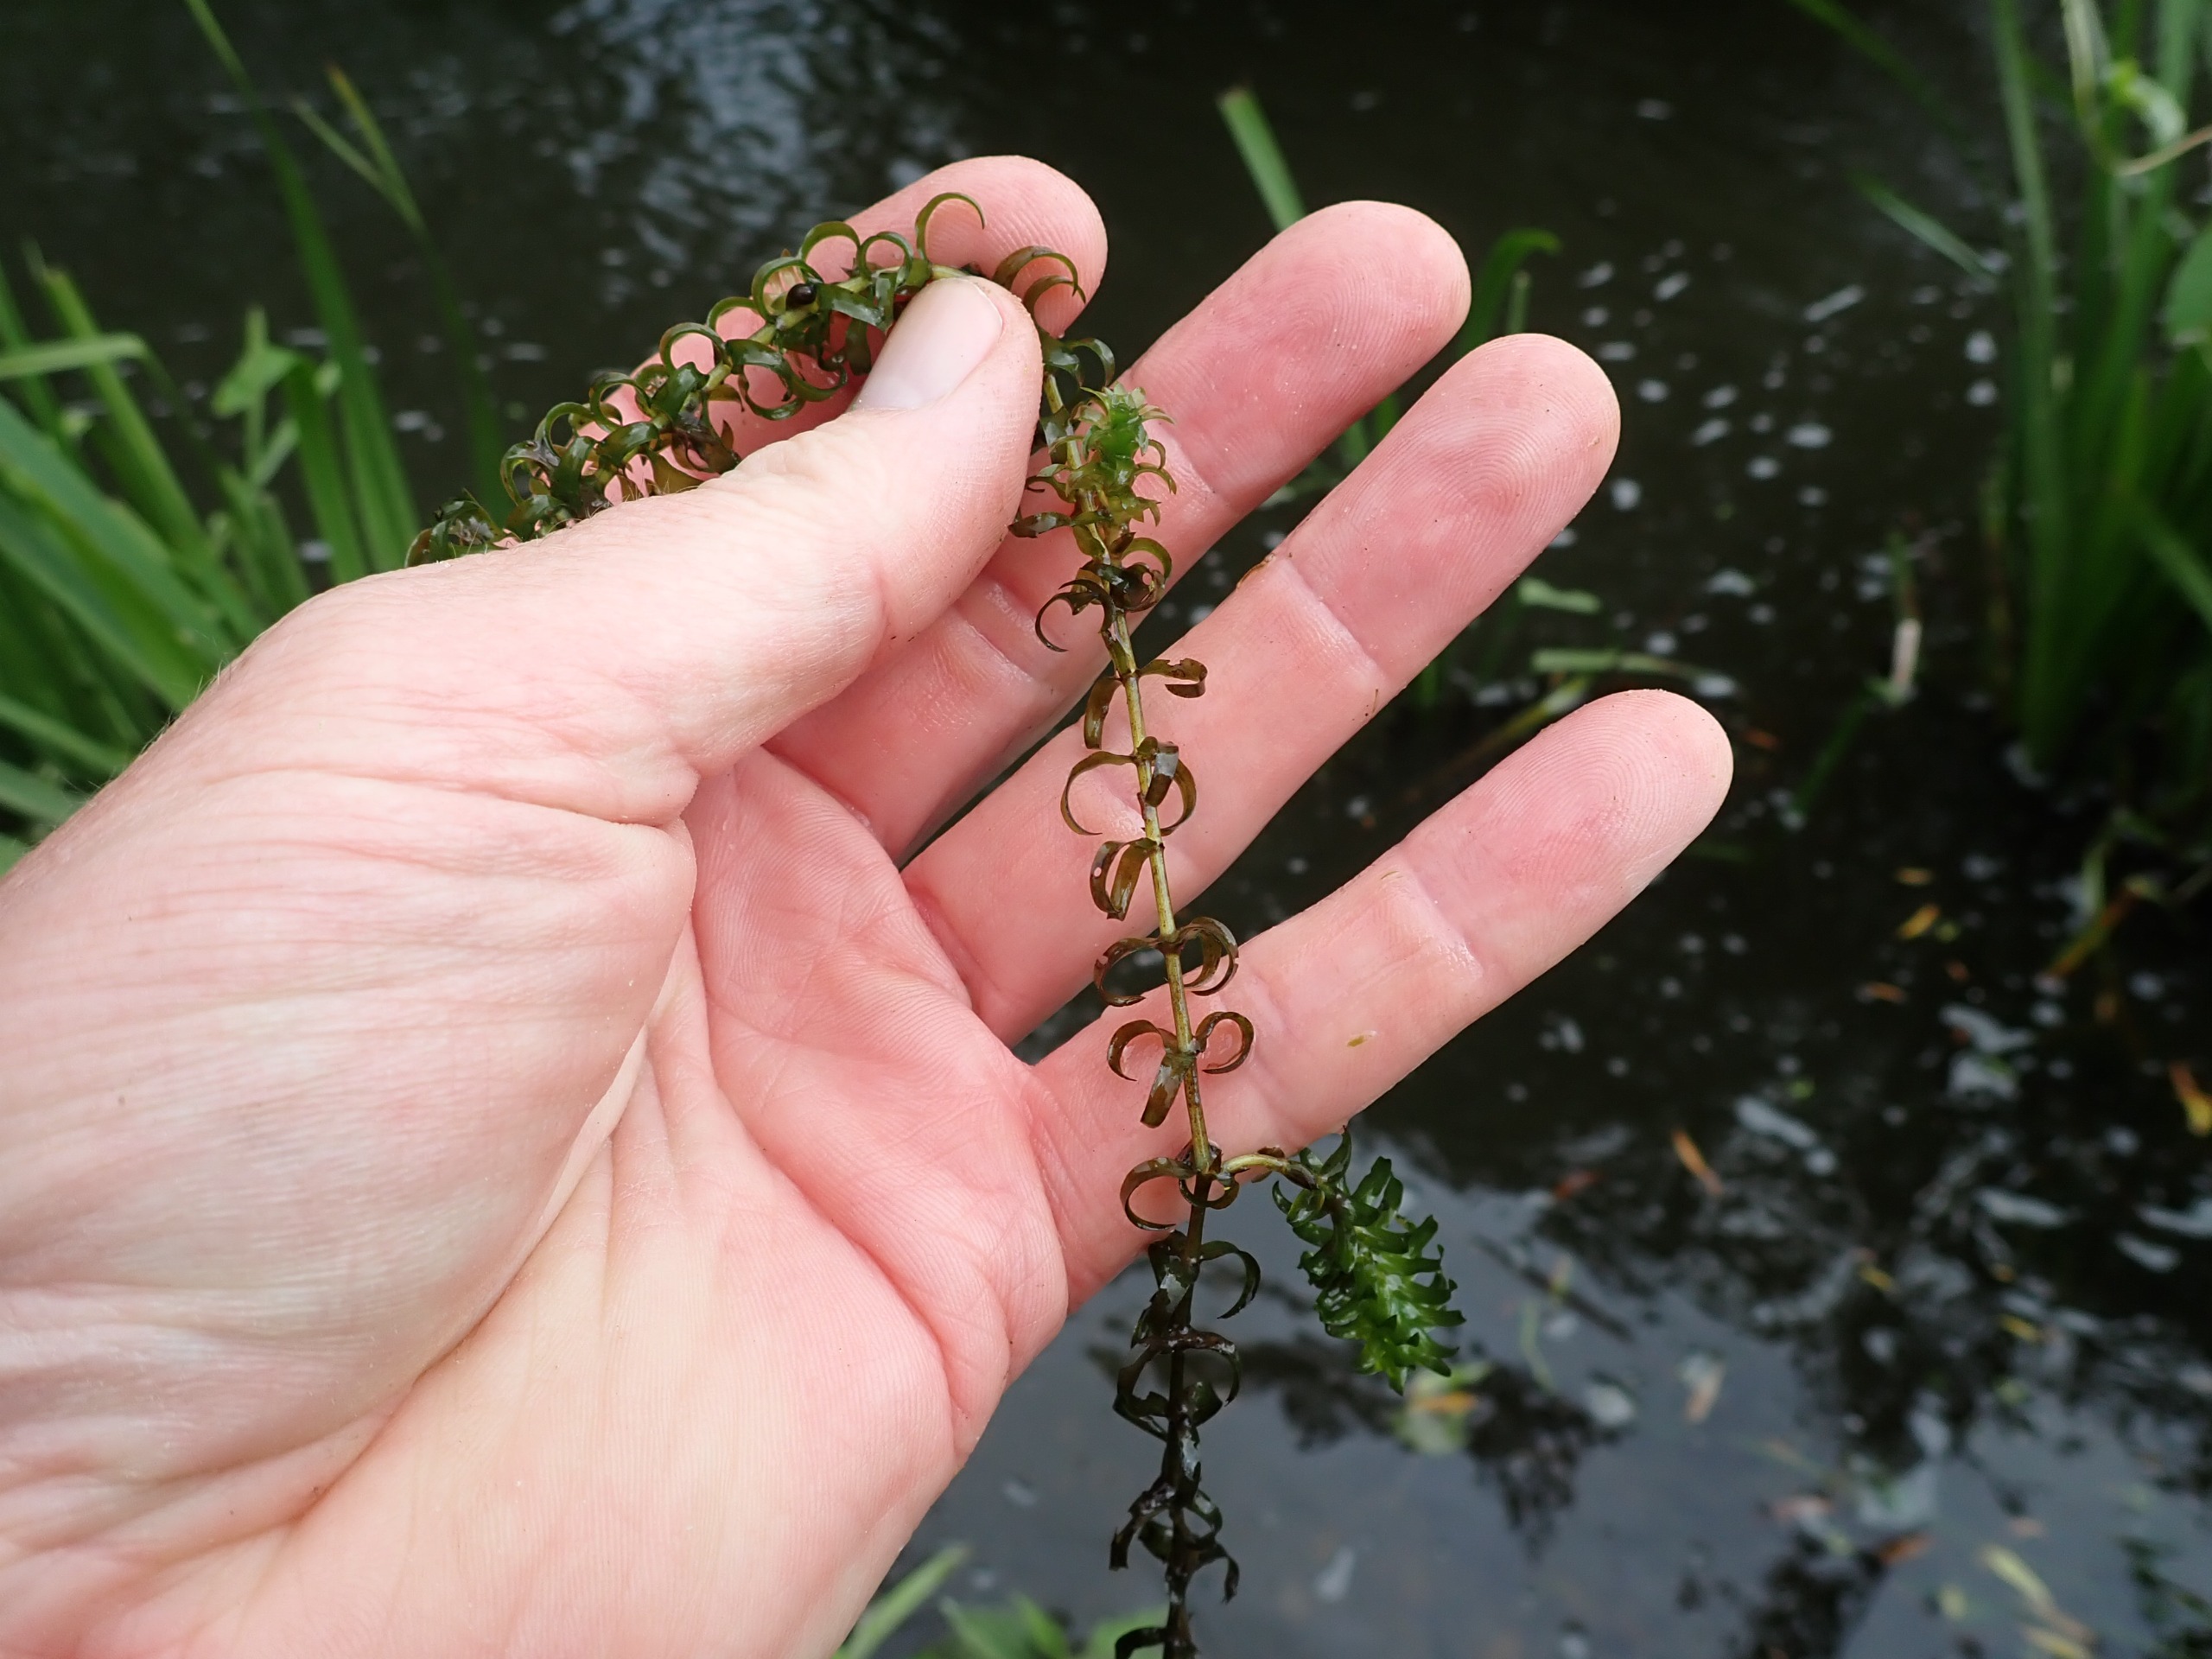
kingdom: Plantae
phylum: Tracheophyta
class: Liliopsida
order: Alismatales
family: Hydrocharitaceae
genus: Elodea
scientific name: Elodea nuttallii
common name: Smalbladet vandpest
